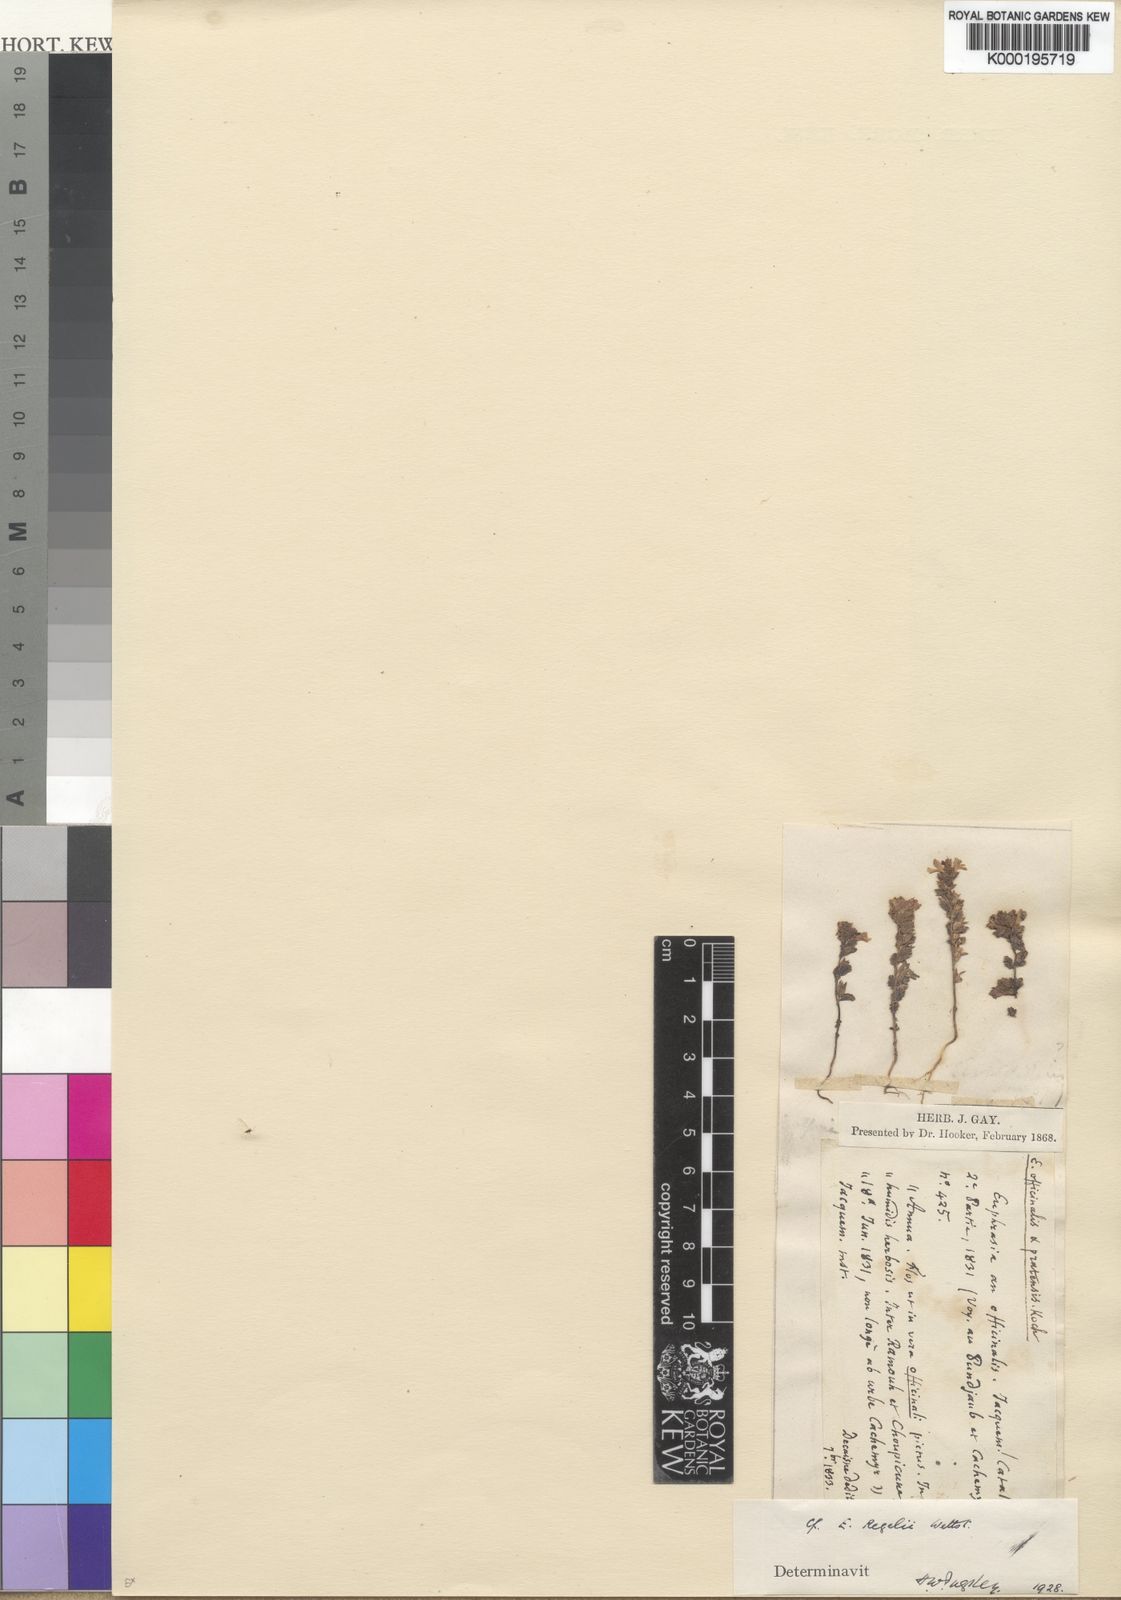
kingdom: Plantae
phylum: Tracheophyta
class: Magnoliopsida
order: Lamiales
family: Orobanchaceae
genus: Euphrasia
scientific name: Euphrasia regelii
